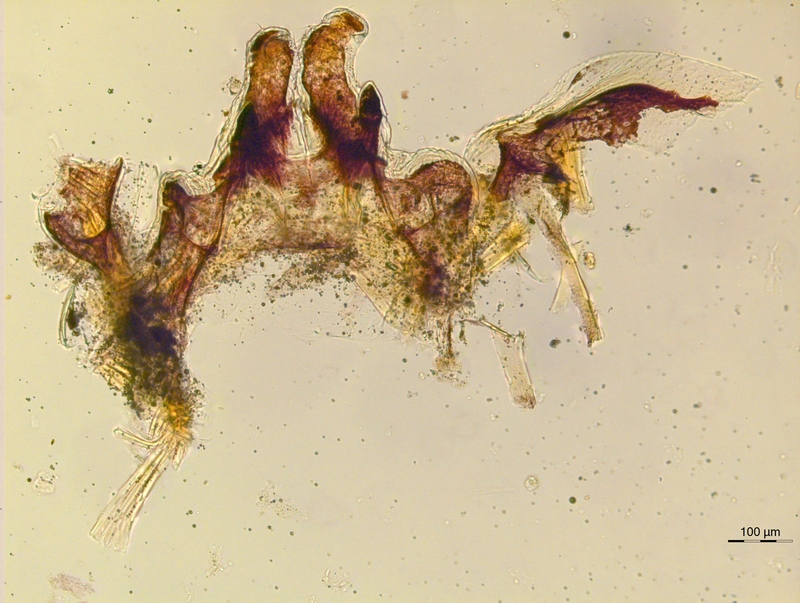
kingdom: Animalia
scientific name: Animalia
